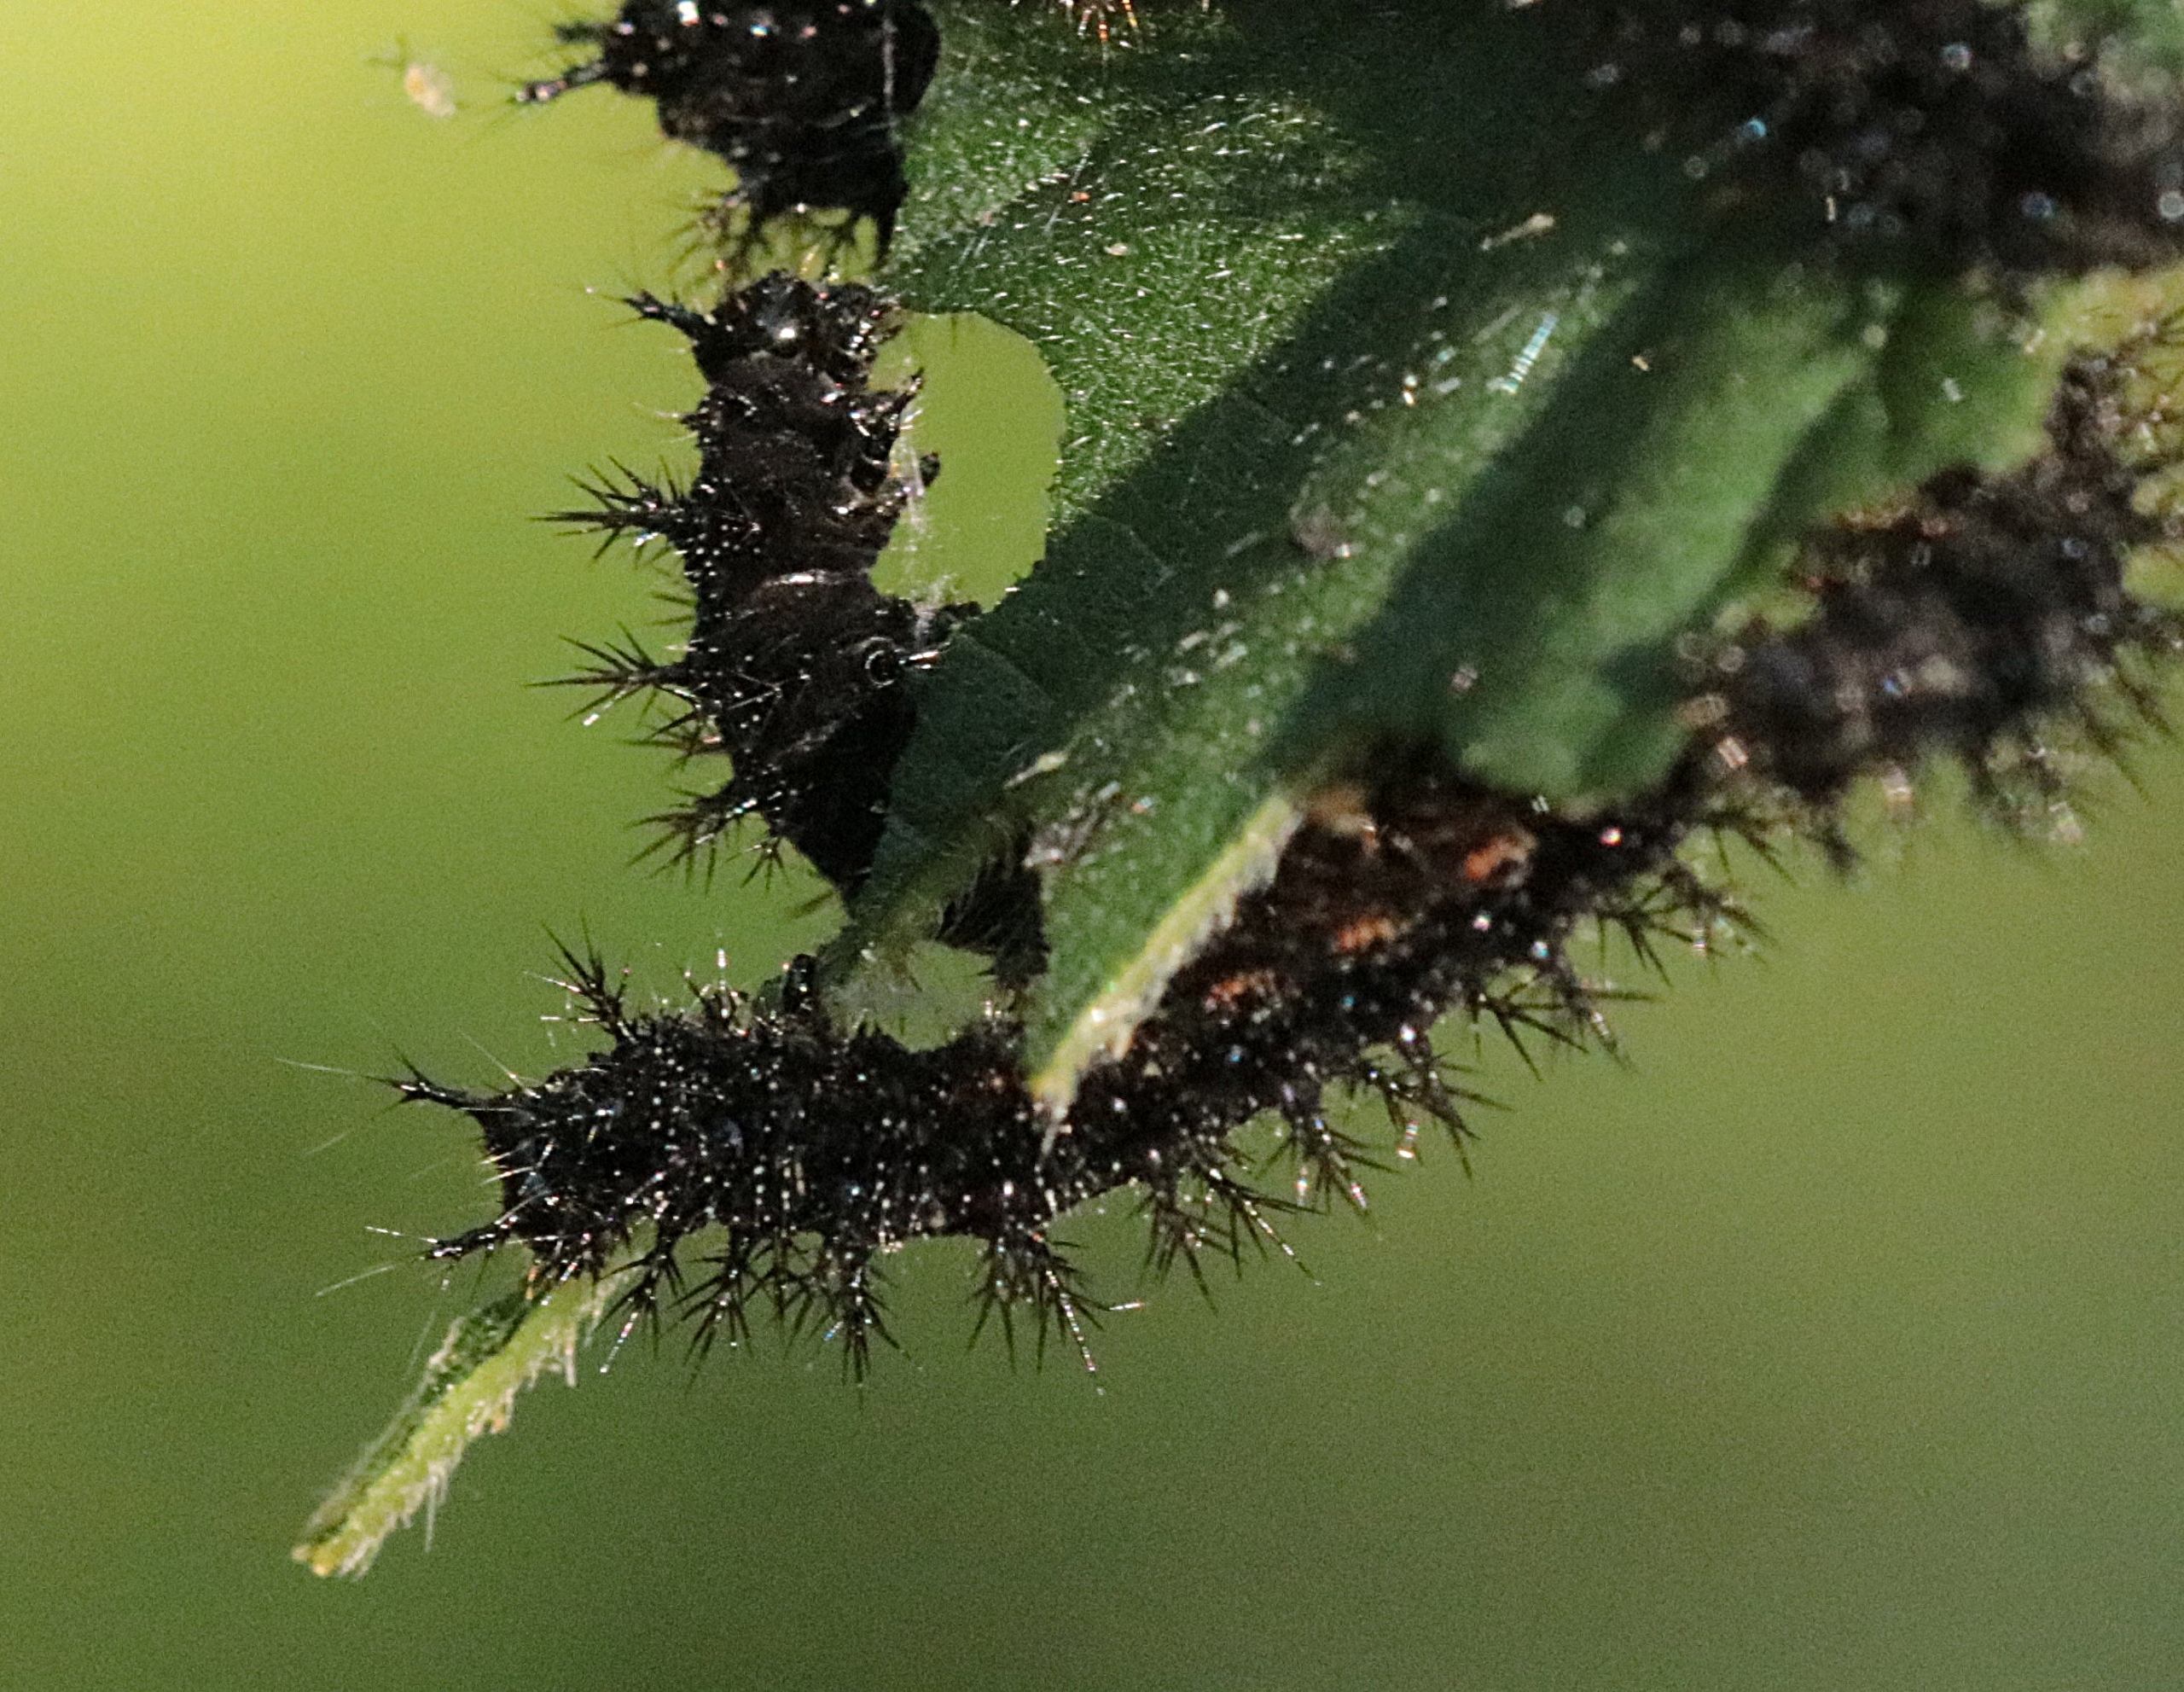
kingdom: Animalia
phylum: Arthropoda
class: Insecta
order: Lepidoptera
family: Nymphalidae
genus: Araschnia
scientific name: Araschnia levana
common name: Nældesommerfugl
